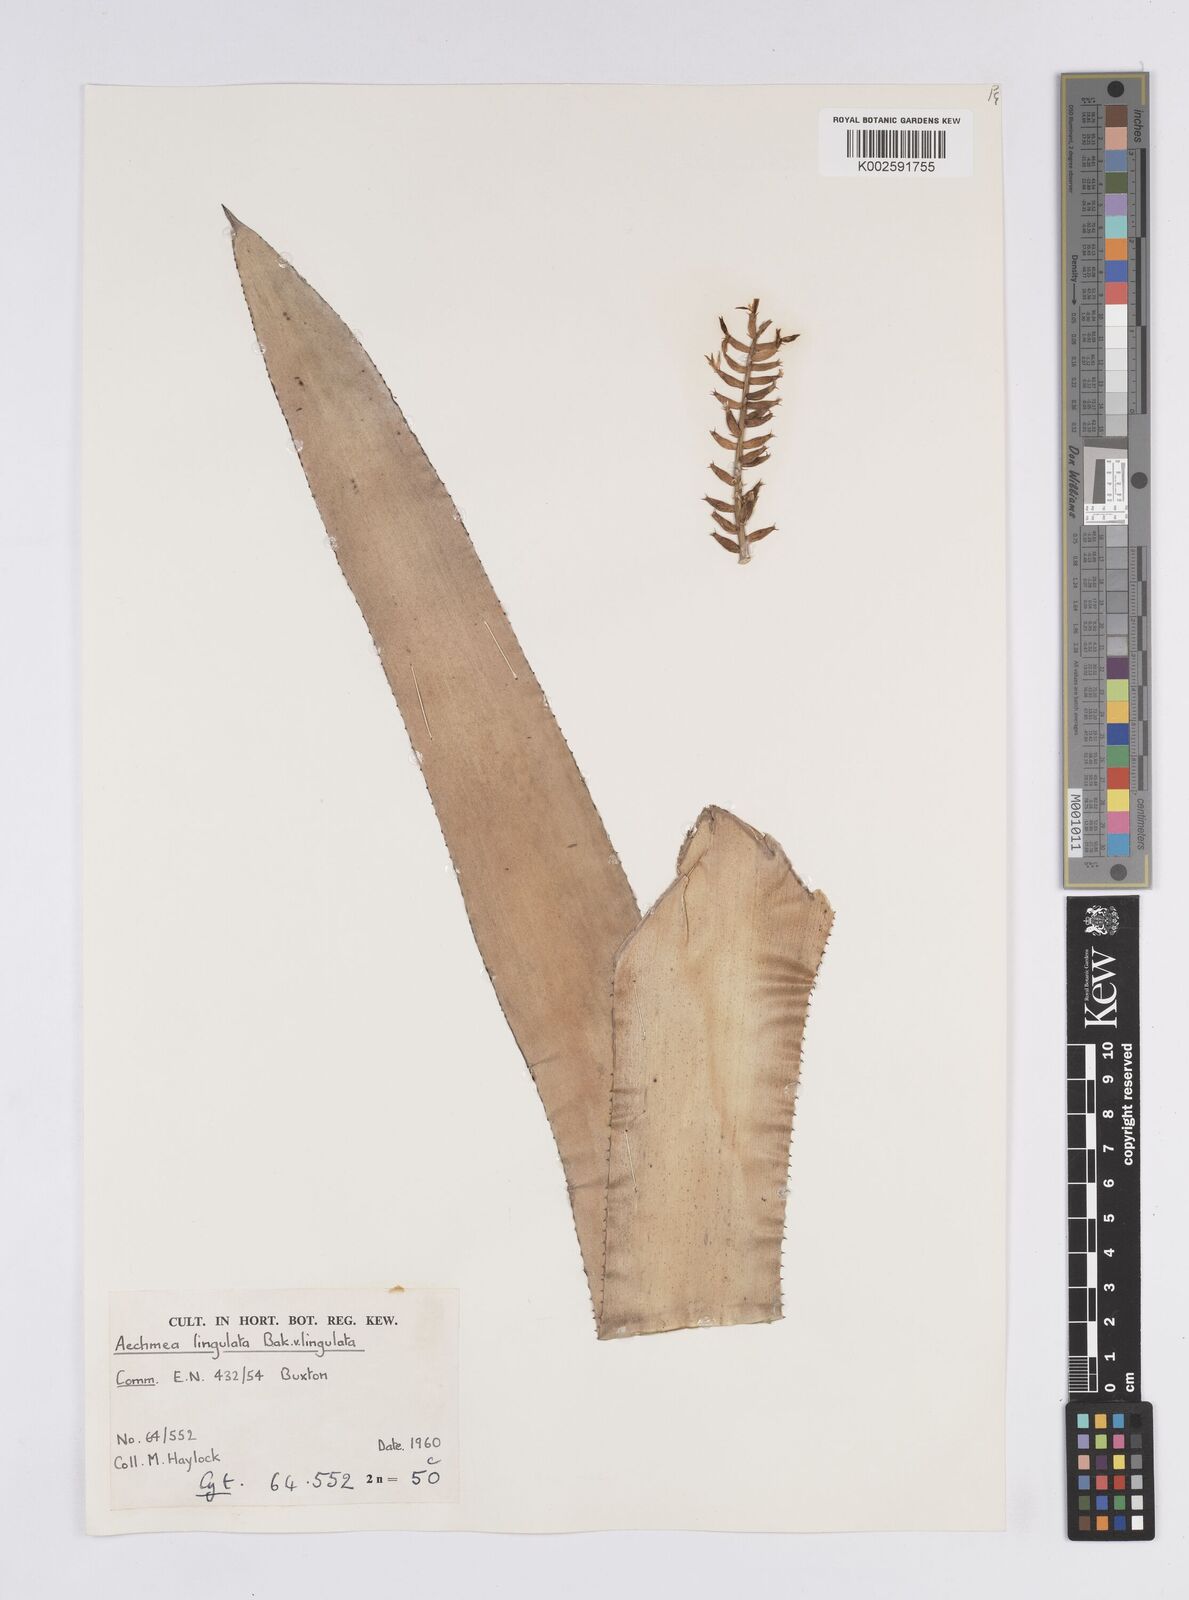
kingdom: Plantae
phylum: Tracheophyta
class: Liliopsida
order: Poales
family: Bromeliaceae
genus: Wittmackia
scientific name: Wittmackia lingulata
